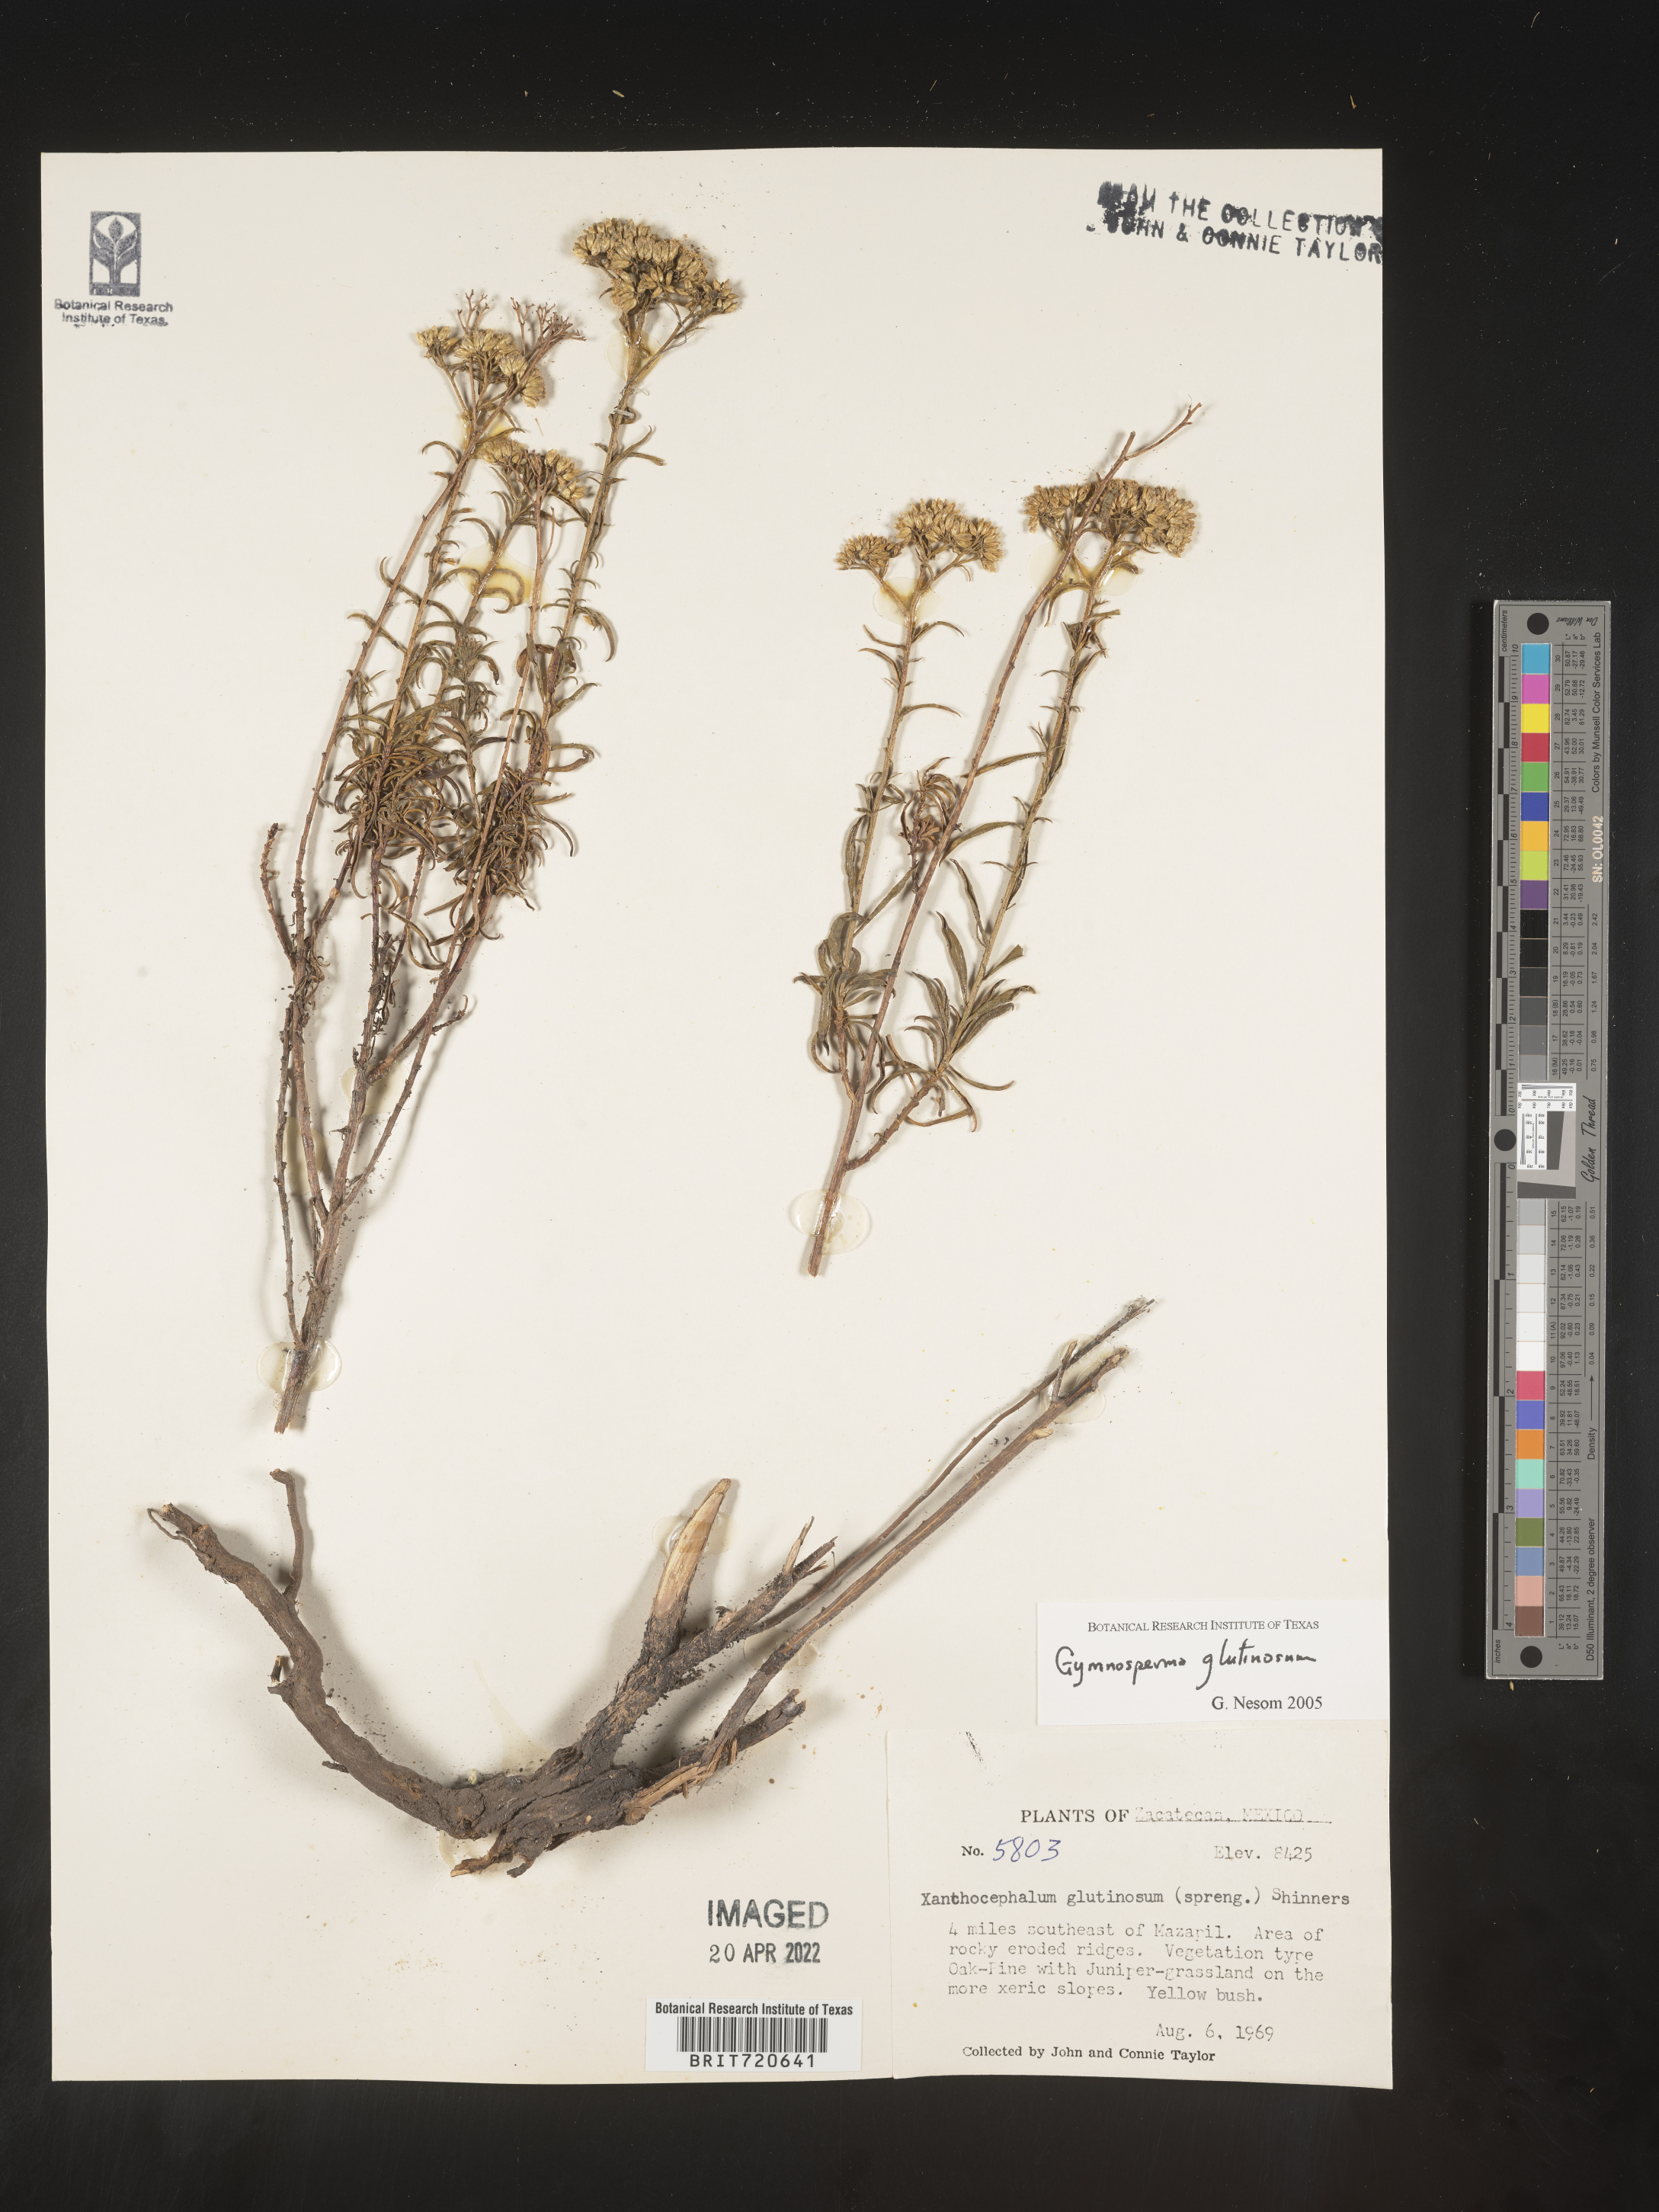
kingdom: Plantae
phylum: Tracheophyta
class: Magnoliopsida
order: Asterales
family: Asteraceae
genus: Gymnosperma
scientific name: Gymnosperma glutinosum
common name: Gumhead
